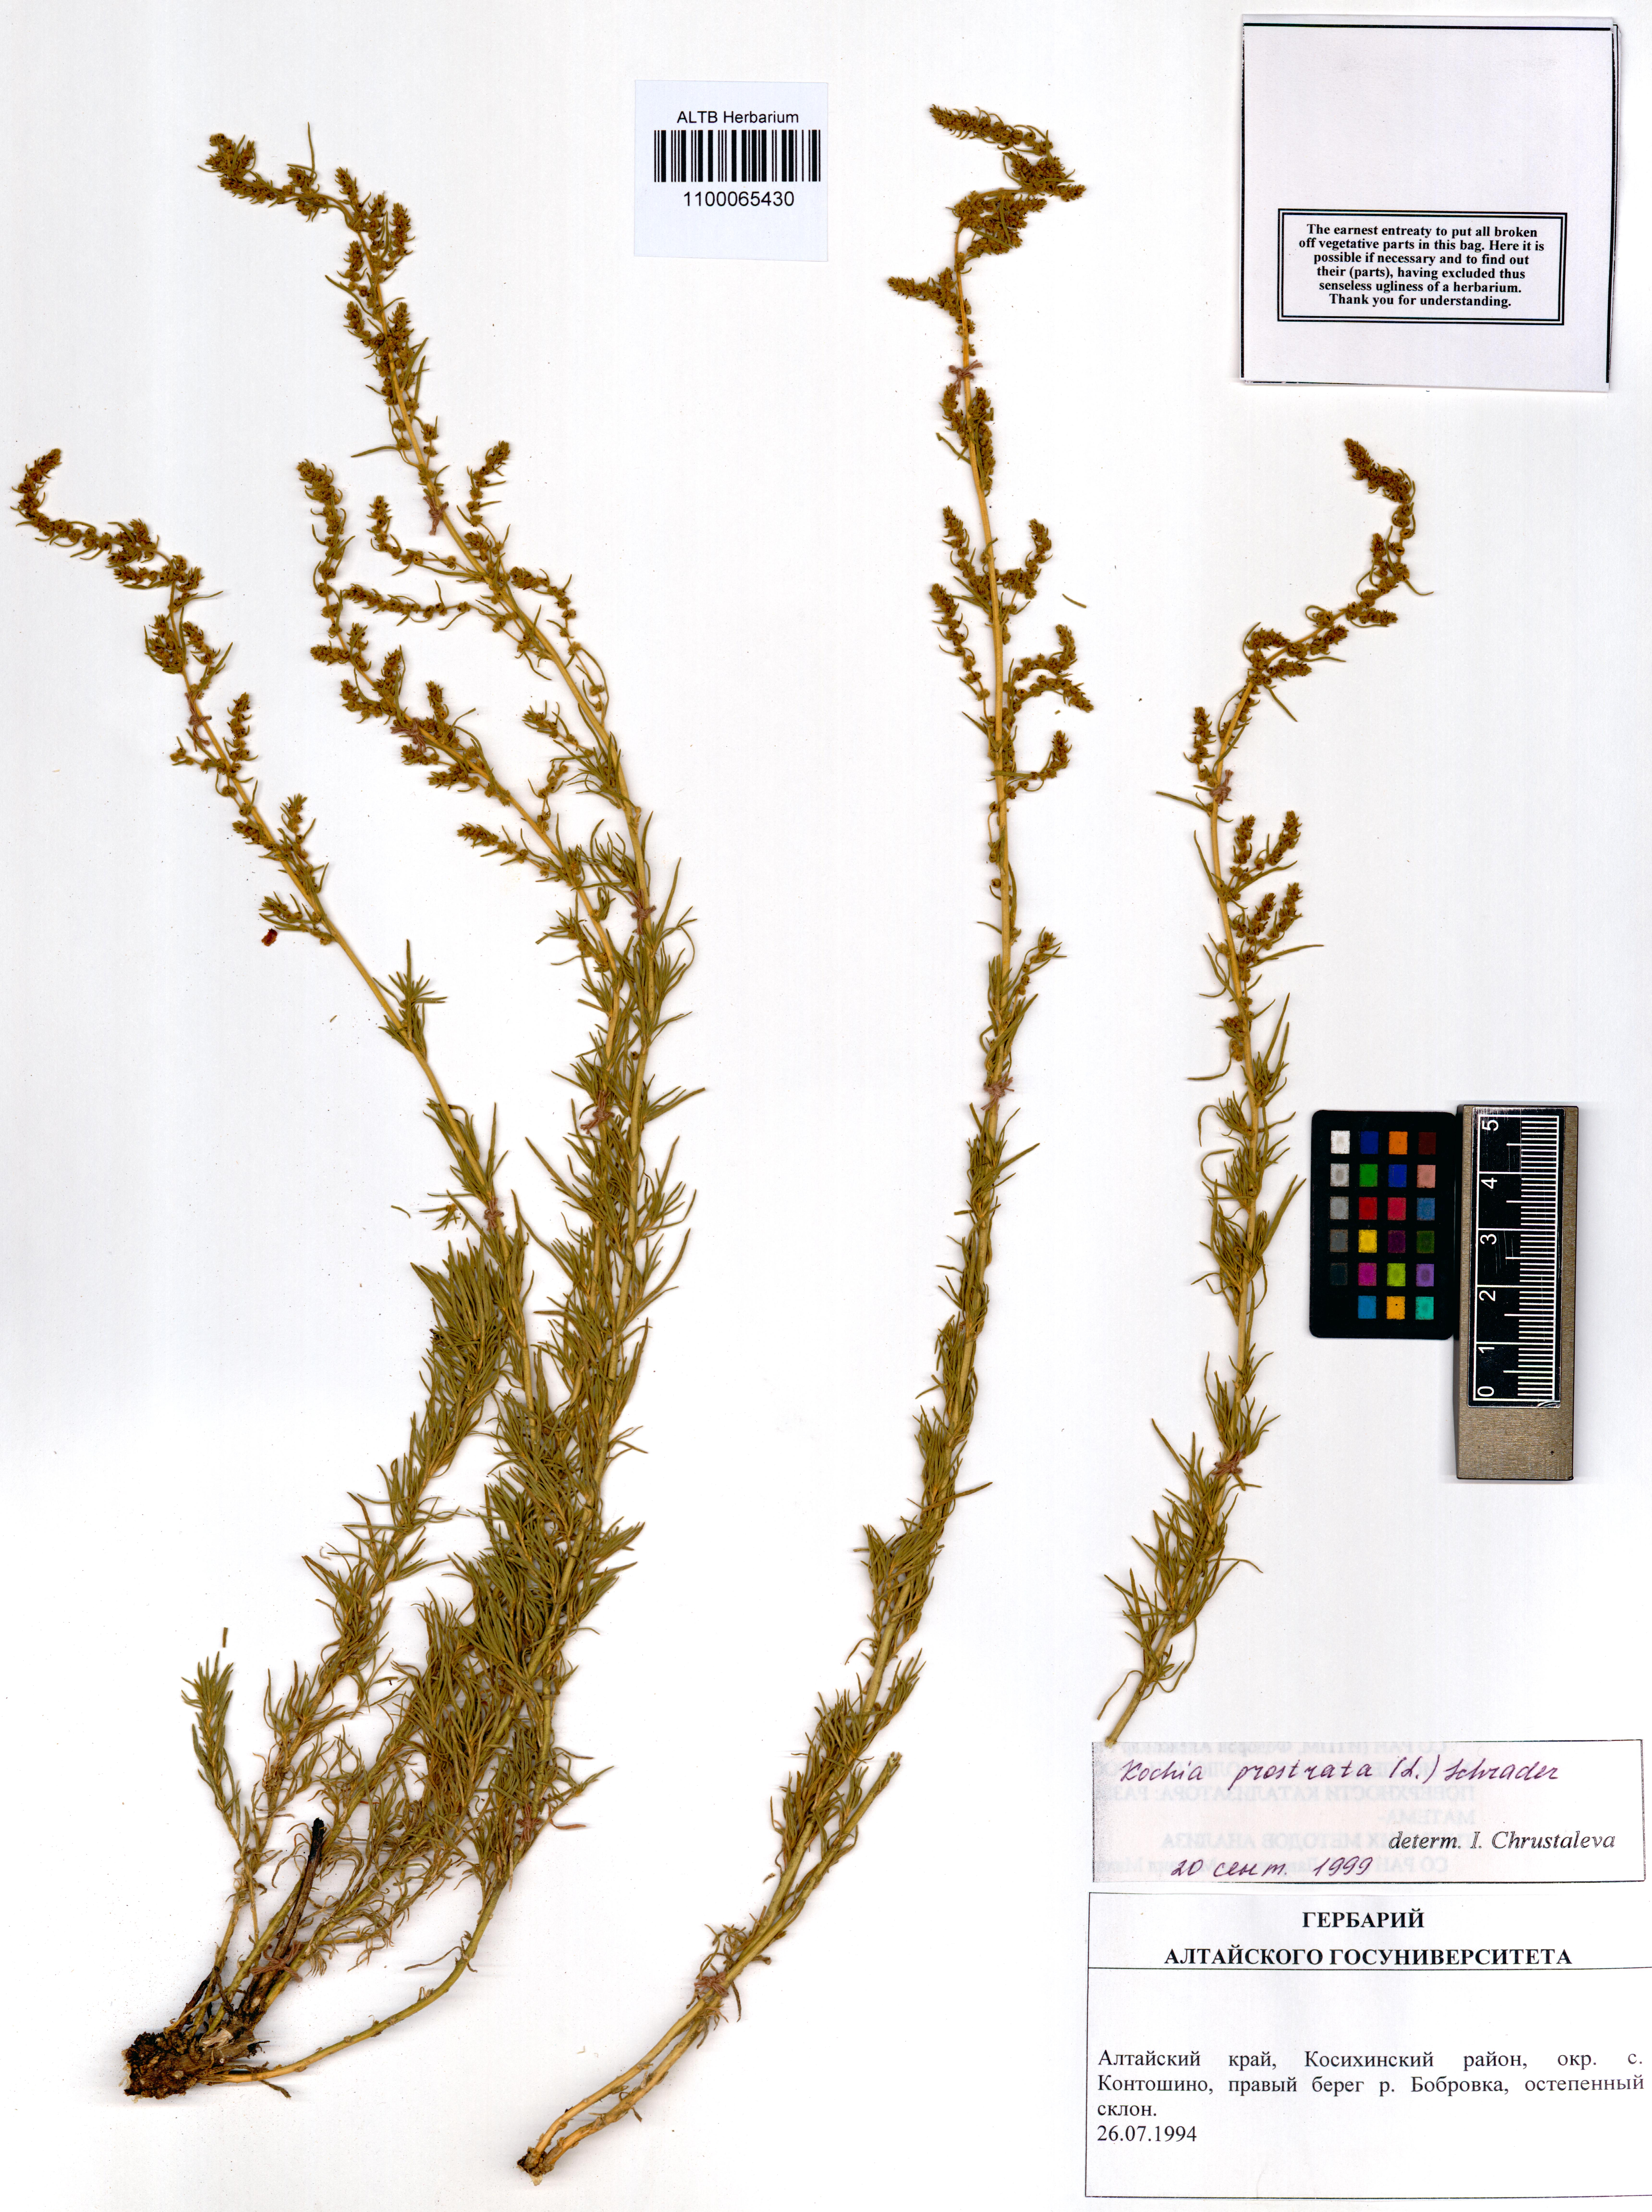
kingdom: Plantae
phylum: Tracheophyta
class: Magnoliopsida
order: Caryophyllales
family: Amaranthaceae
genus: Bassia
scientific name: Bassia prostrata
